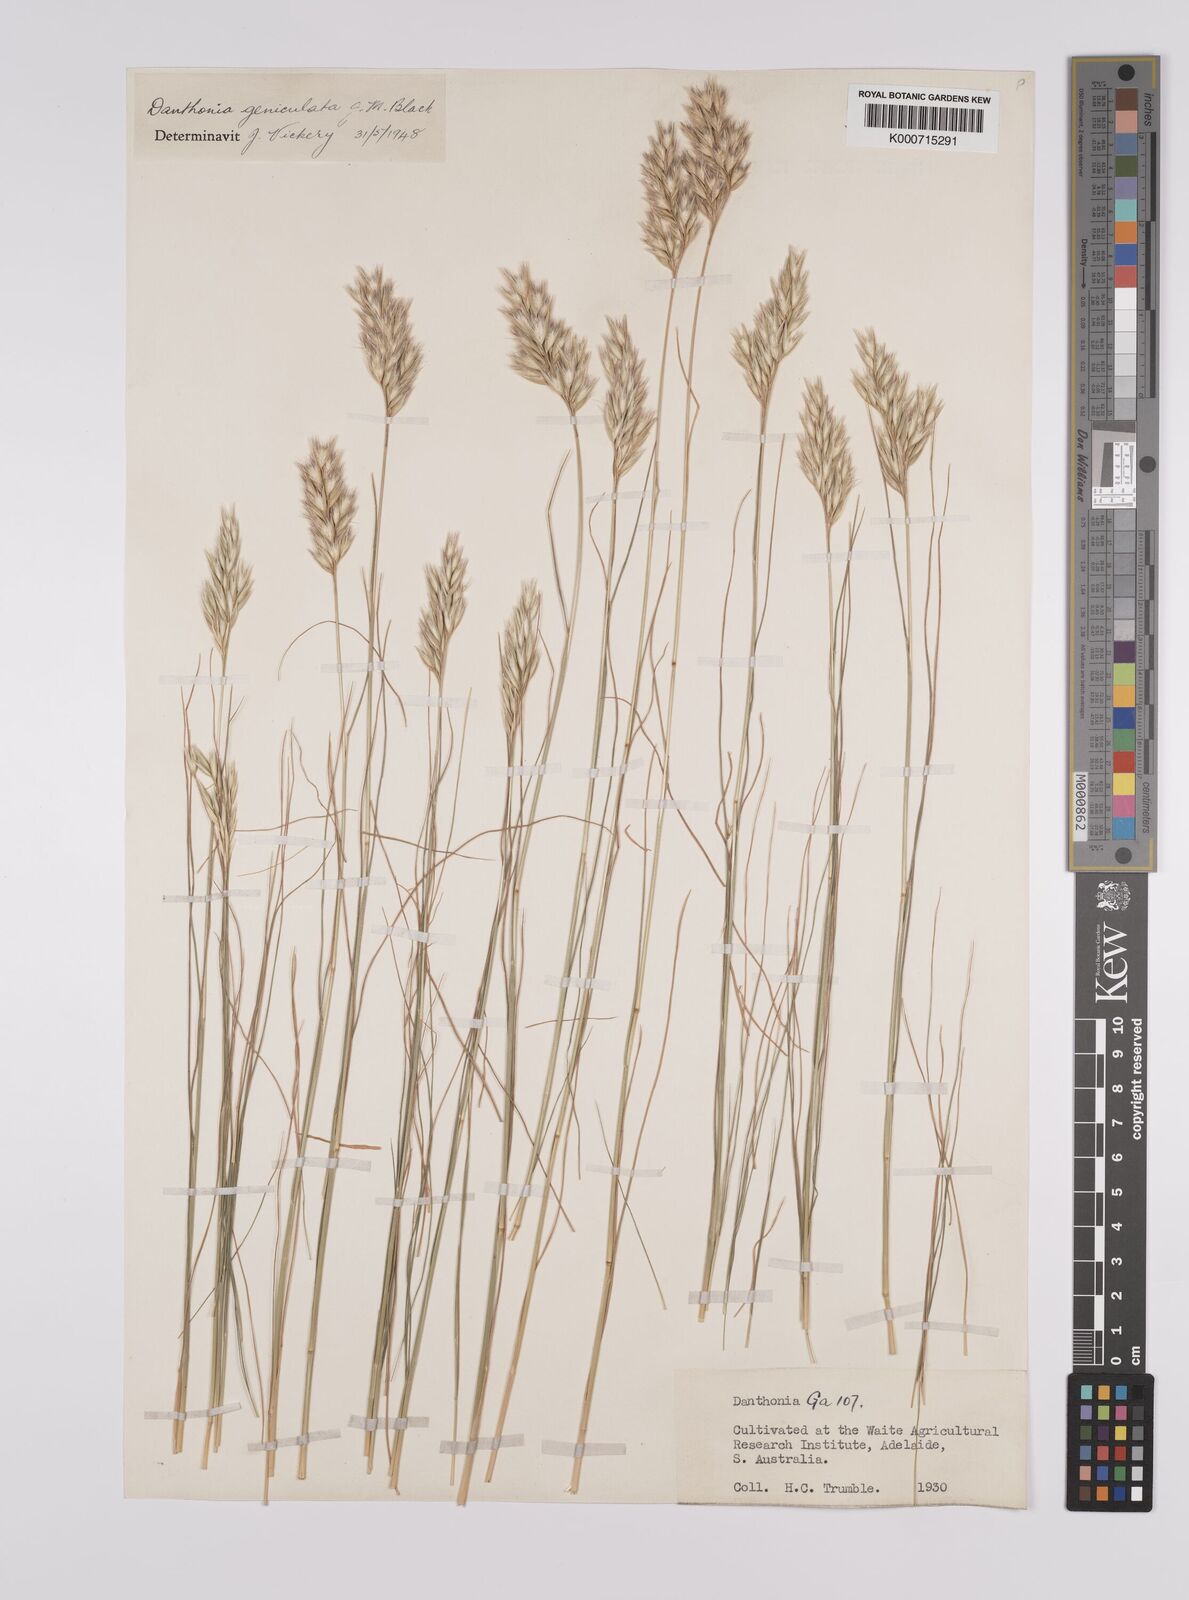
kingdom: Plantae
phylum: Tracheophyta
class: Liliopsida
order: Poales
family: Poaceae
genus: Rytidosperma
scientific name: Rytidosperma geniculatum
